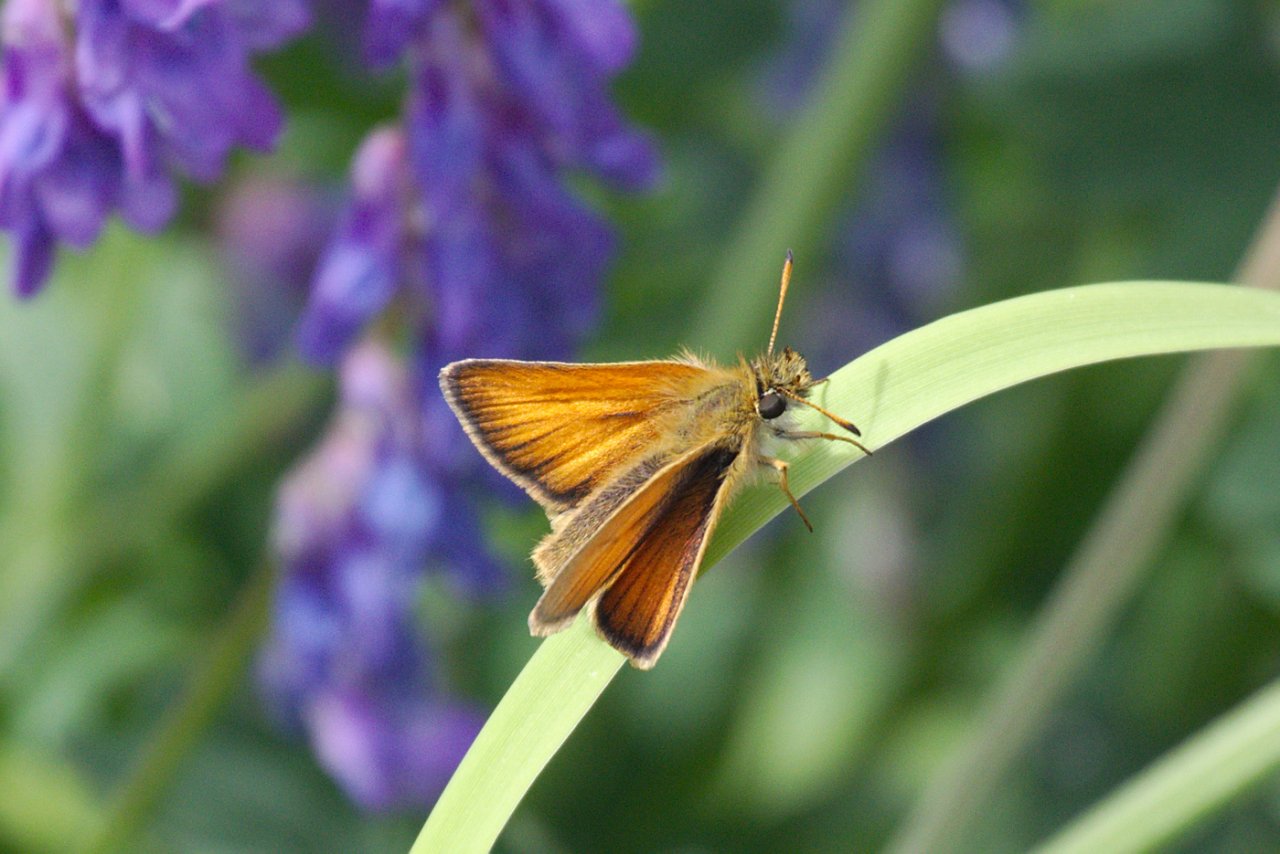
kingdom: Animalia
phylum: Arthropoda
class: Insecta
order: Lepidoptera
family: Hesperiidae
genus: Thymelicus
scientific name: Thymelicus lineola
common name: European Skipper
